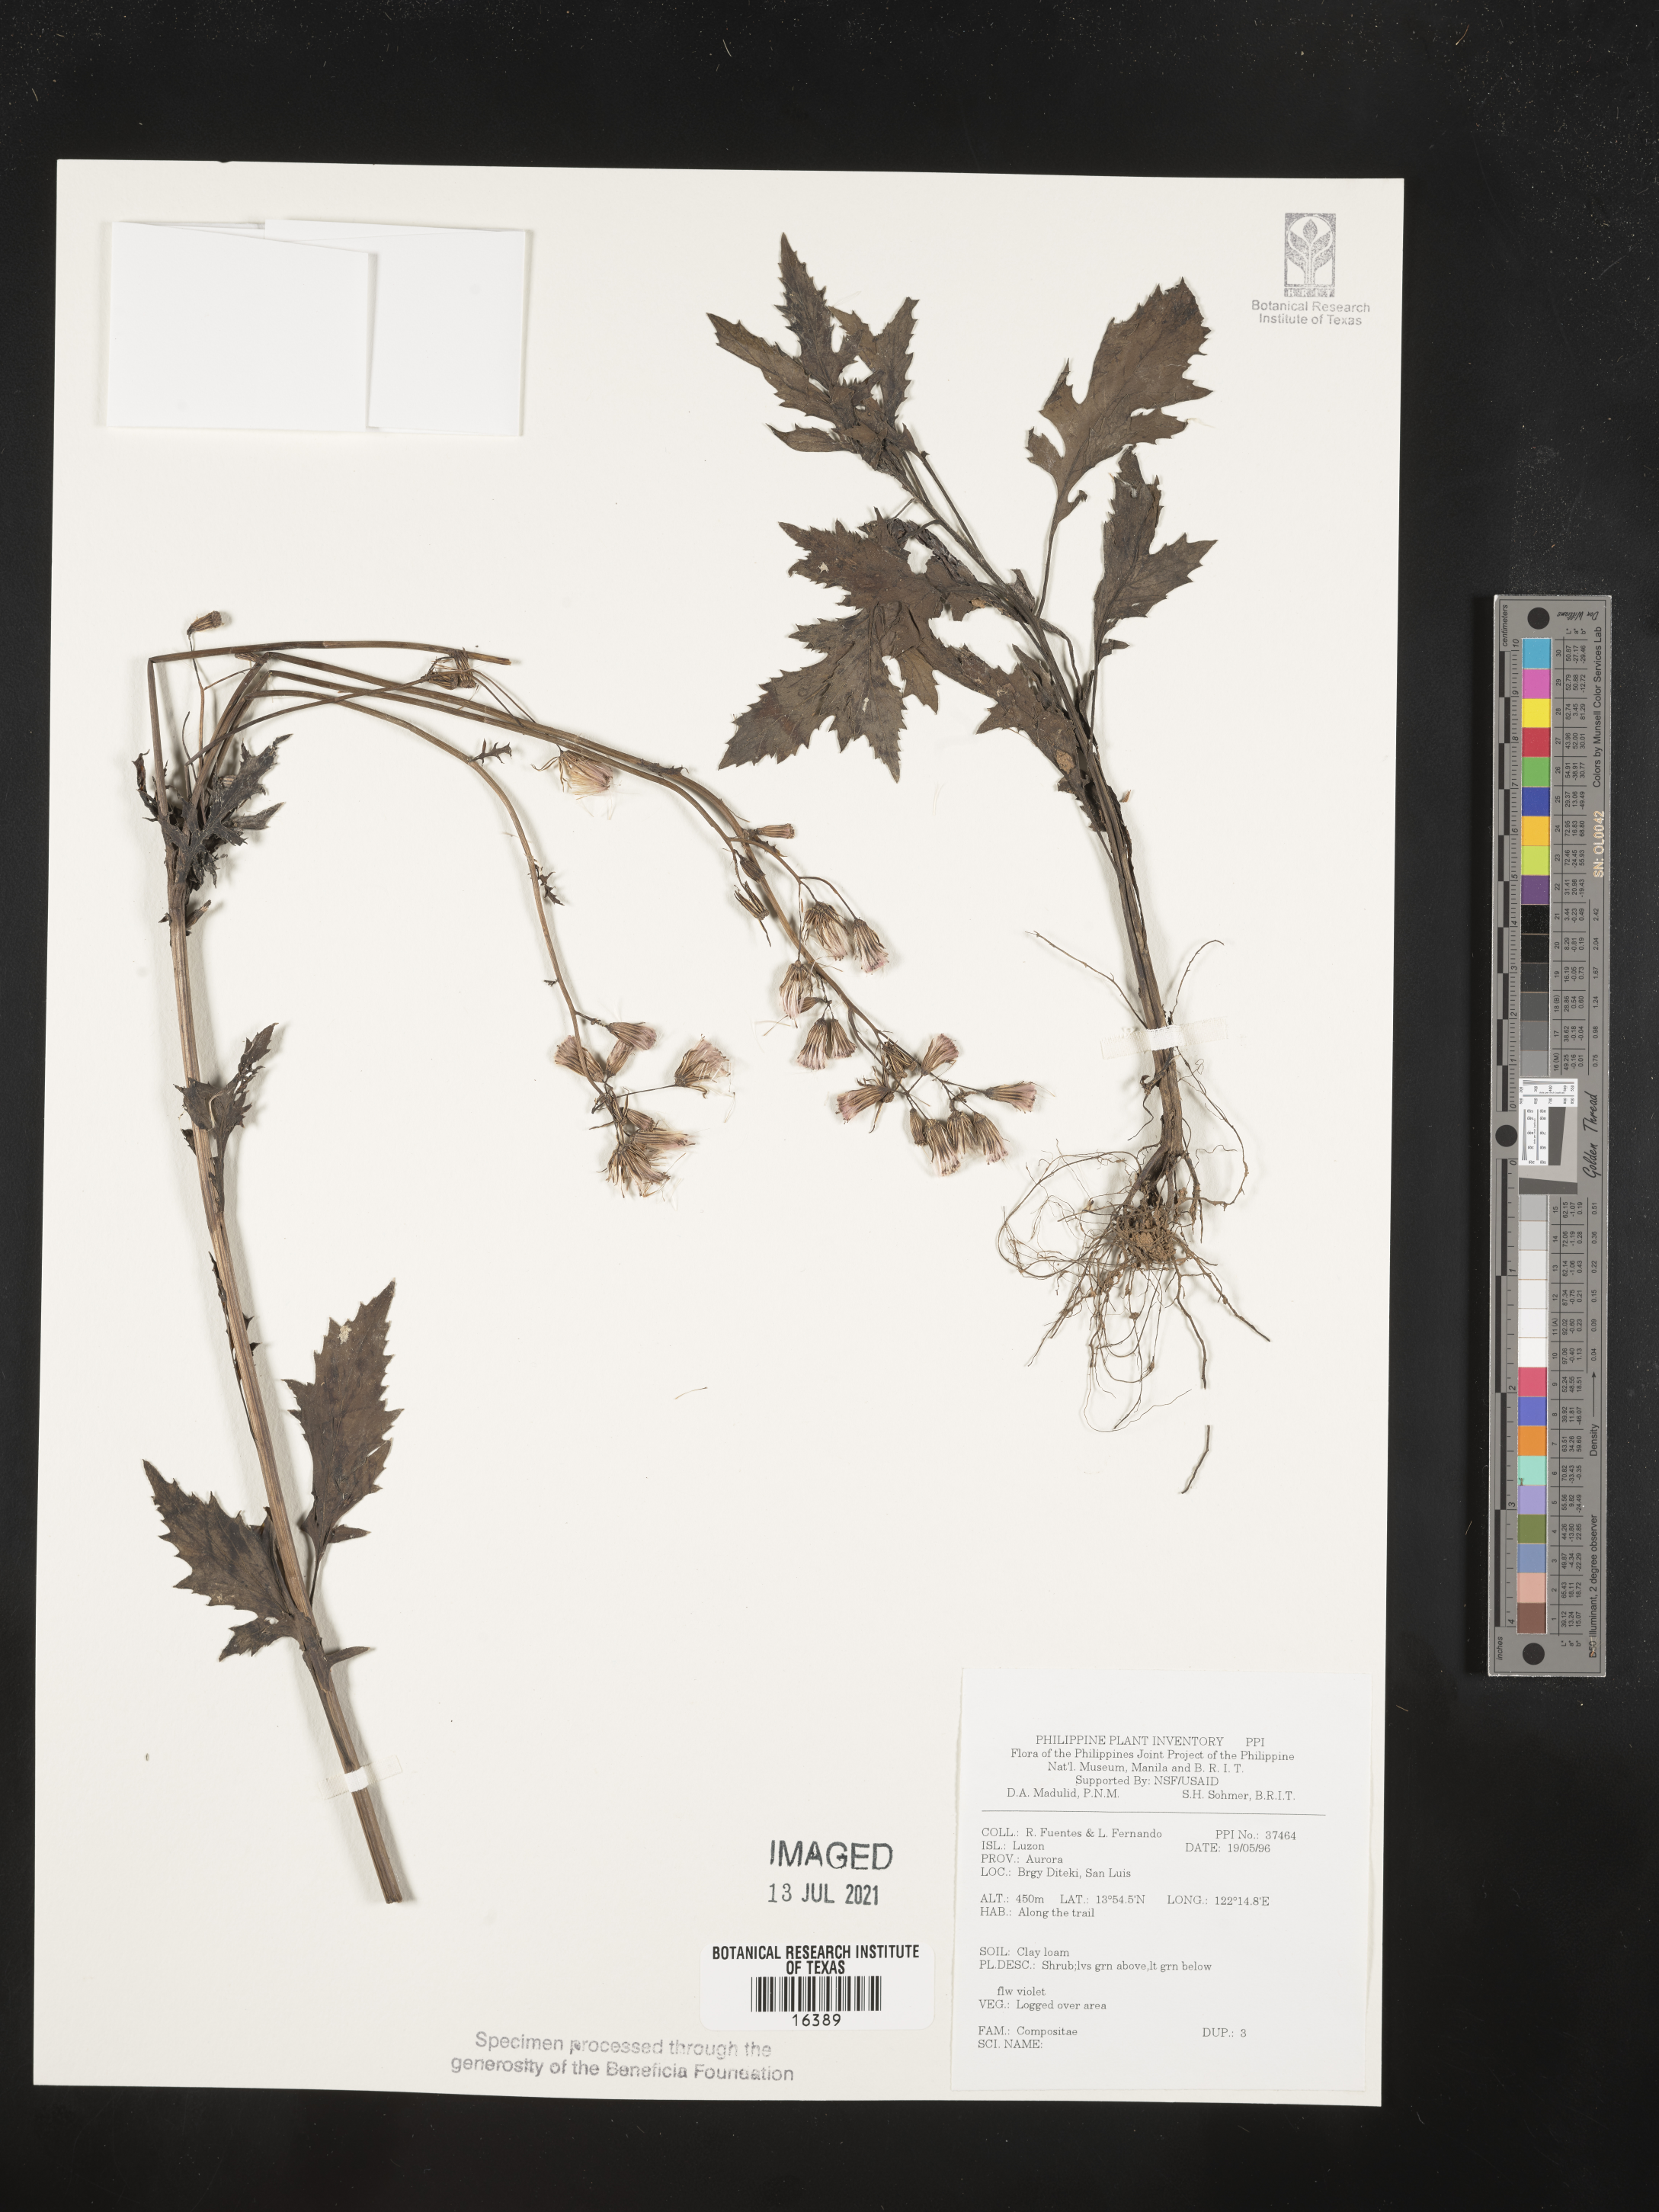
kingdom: Plantae
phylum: Tracheophyta
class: Magnoliopsida
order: Asterales
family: Asteraceae
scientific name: Asteraceae
